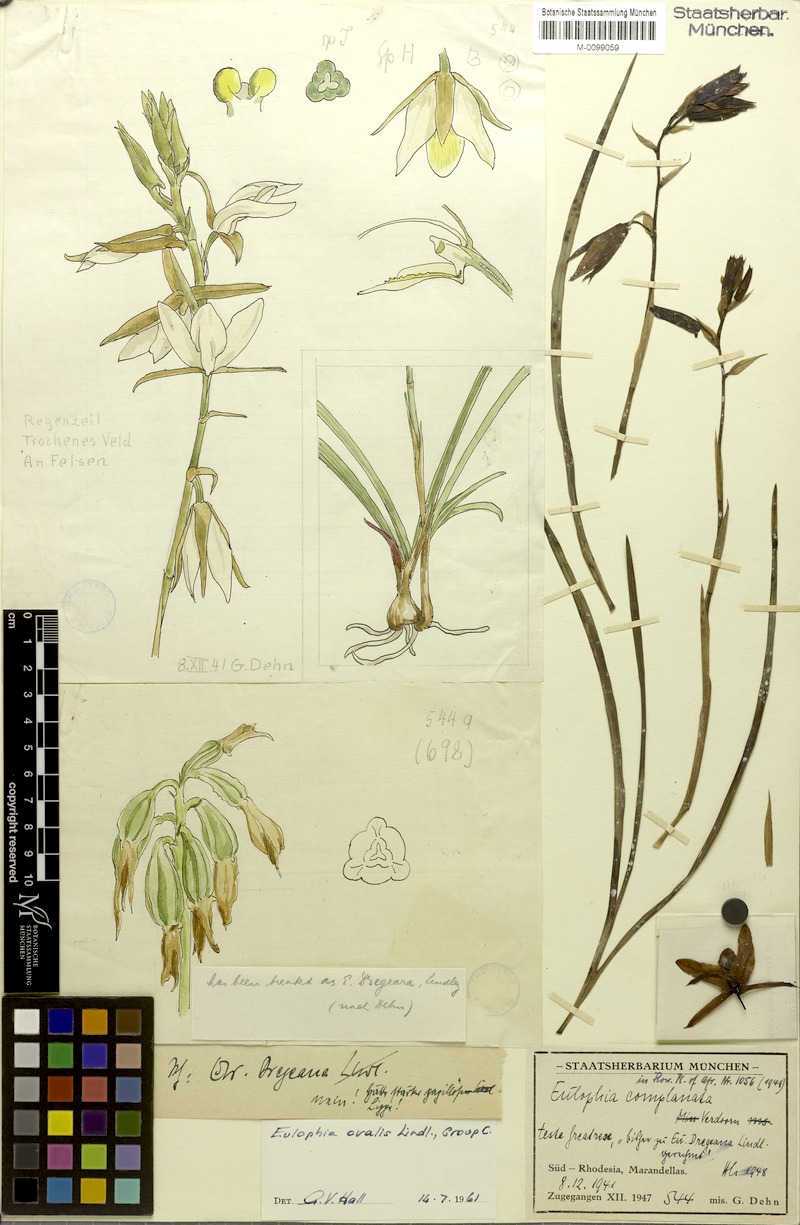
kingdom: Plantae
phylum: Tracheophyta
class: Liliopsida
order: Asparagales
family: Orchidaceae
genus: Eulophia
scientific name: Eulophia ovalis
